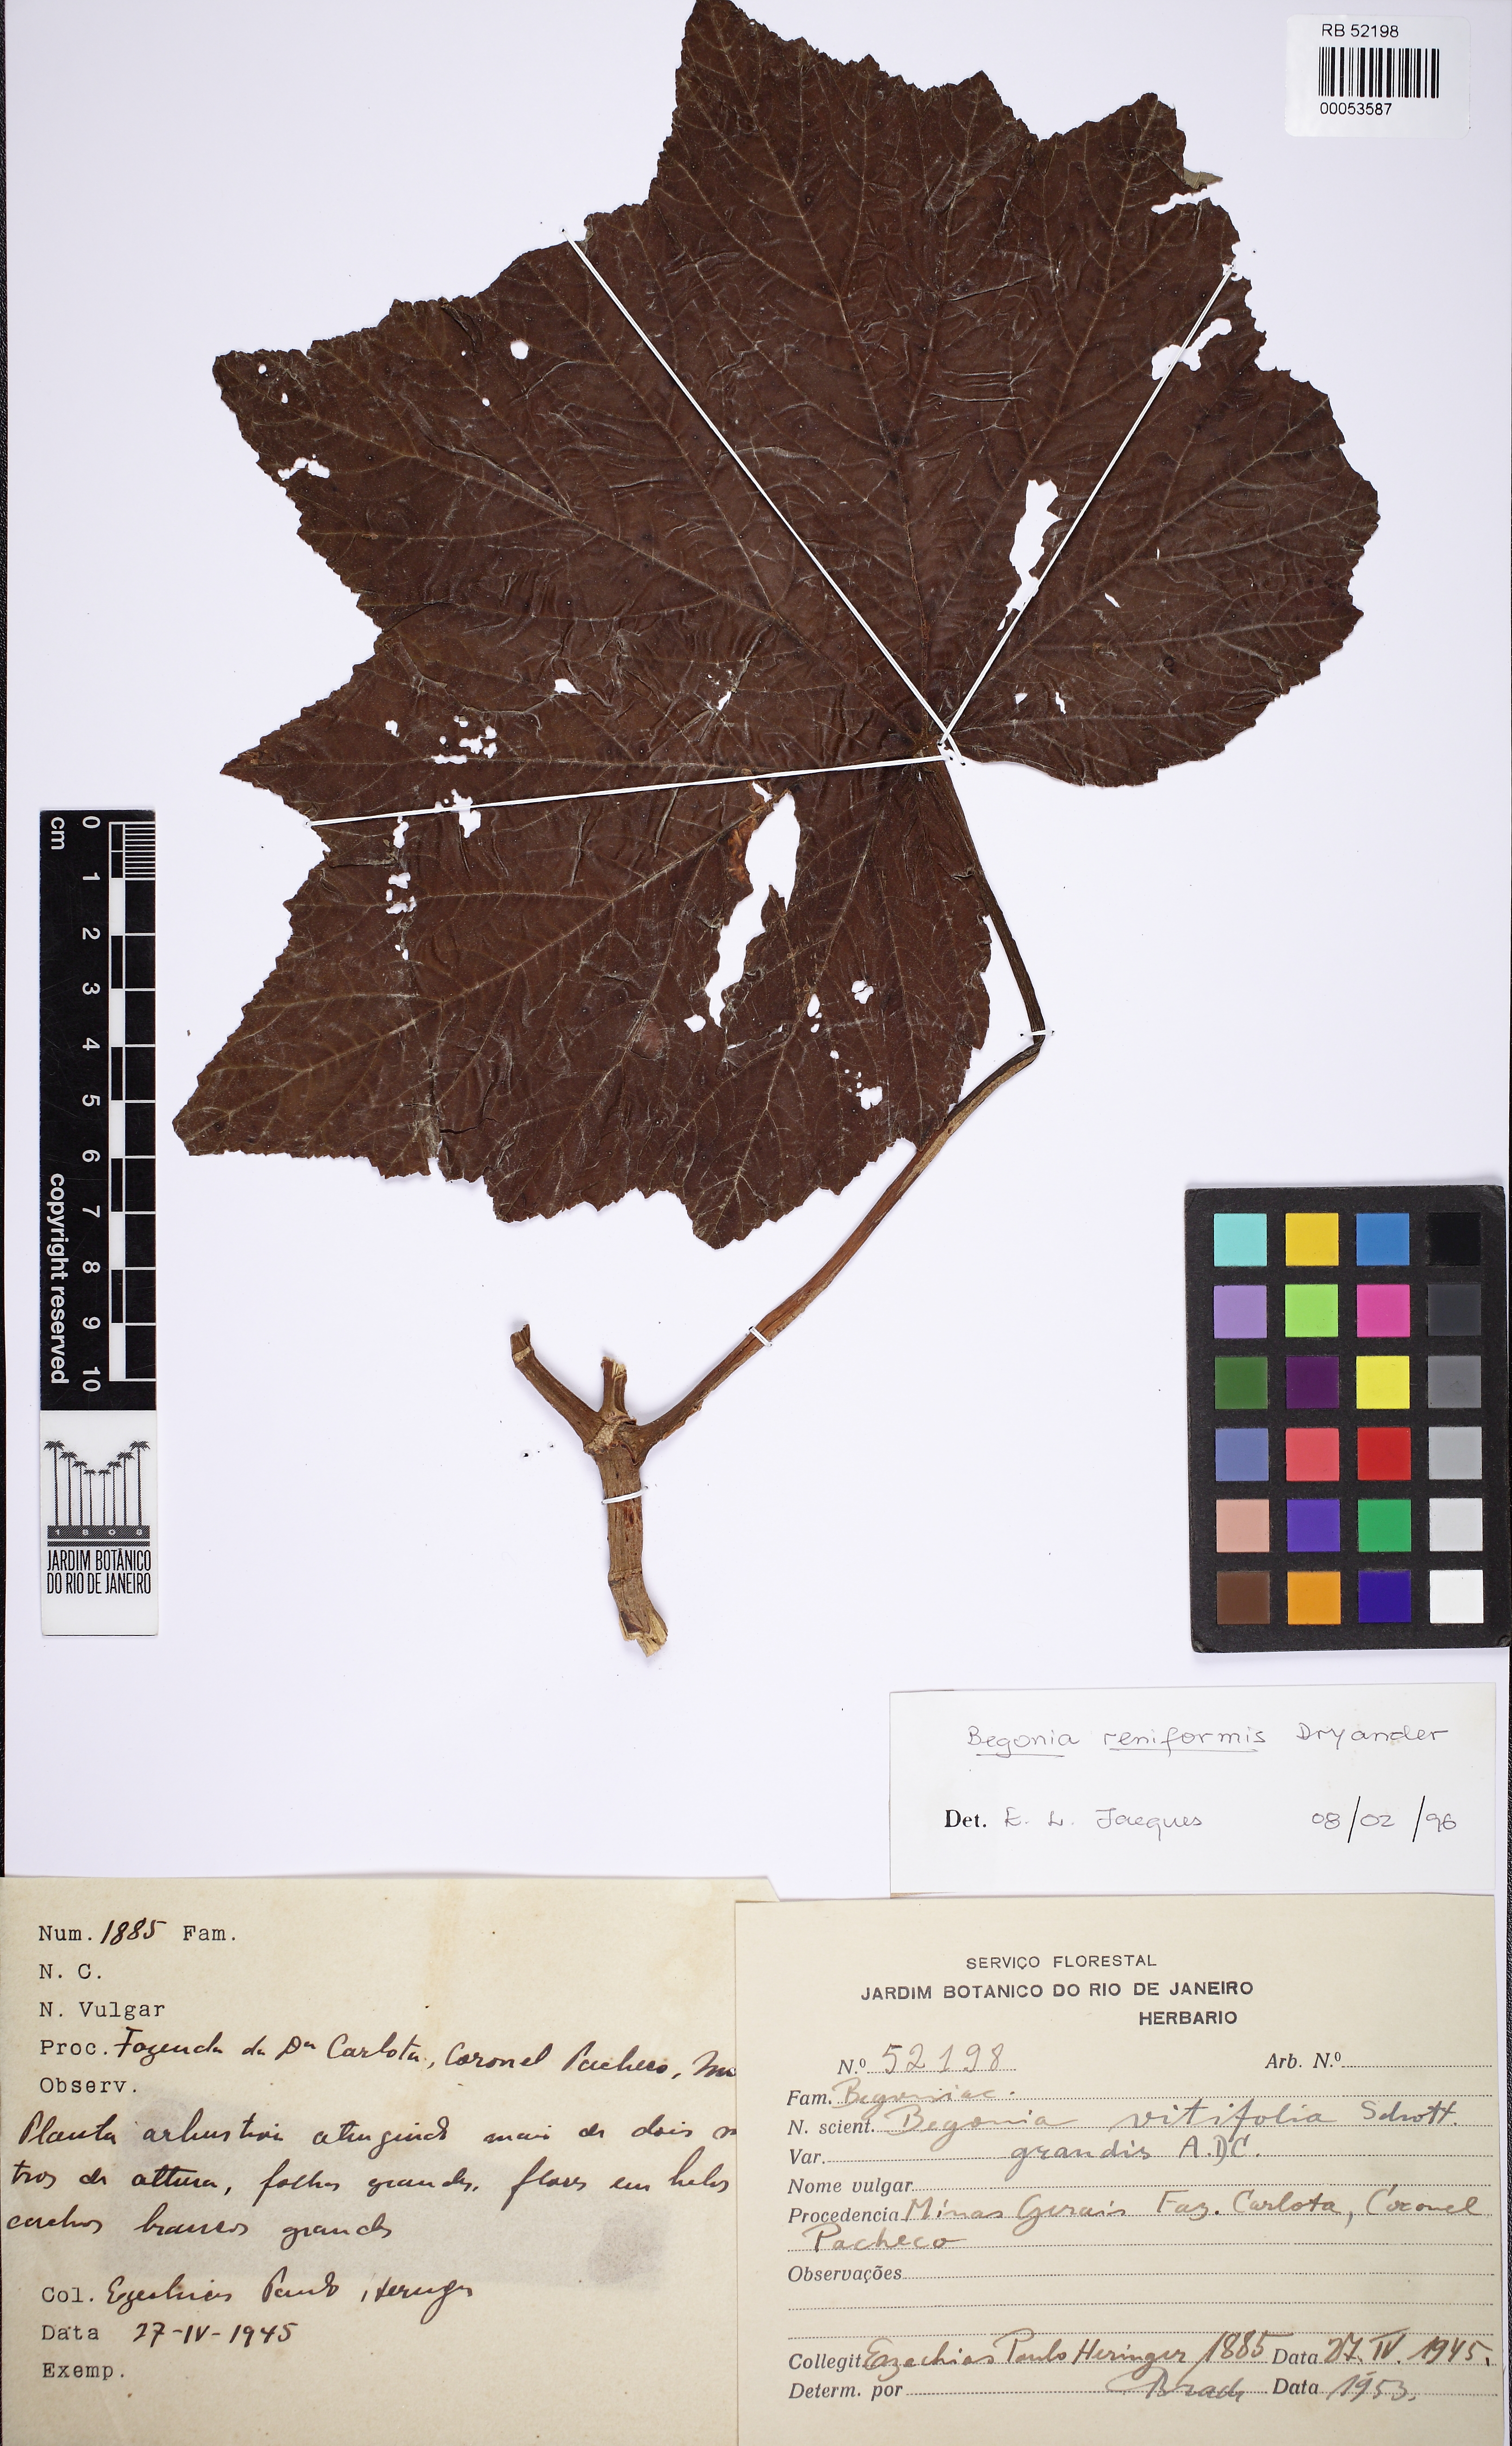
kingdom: Plantae
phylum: Tracheophyta
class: Magnoliopsida
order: Cucurbitales
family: Begoniaceae
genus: Begonia
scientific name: Begonia reniformis
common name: Grapeleaf begonia
